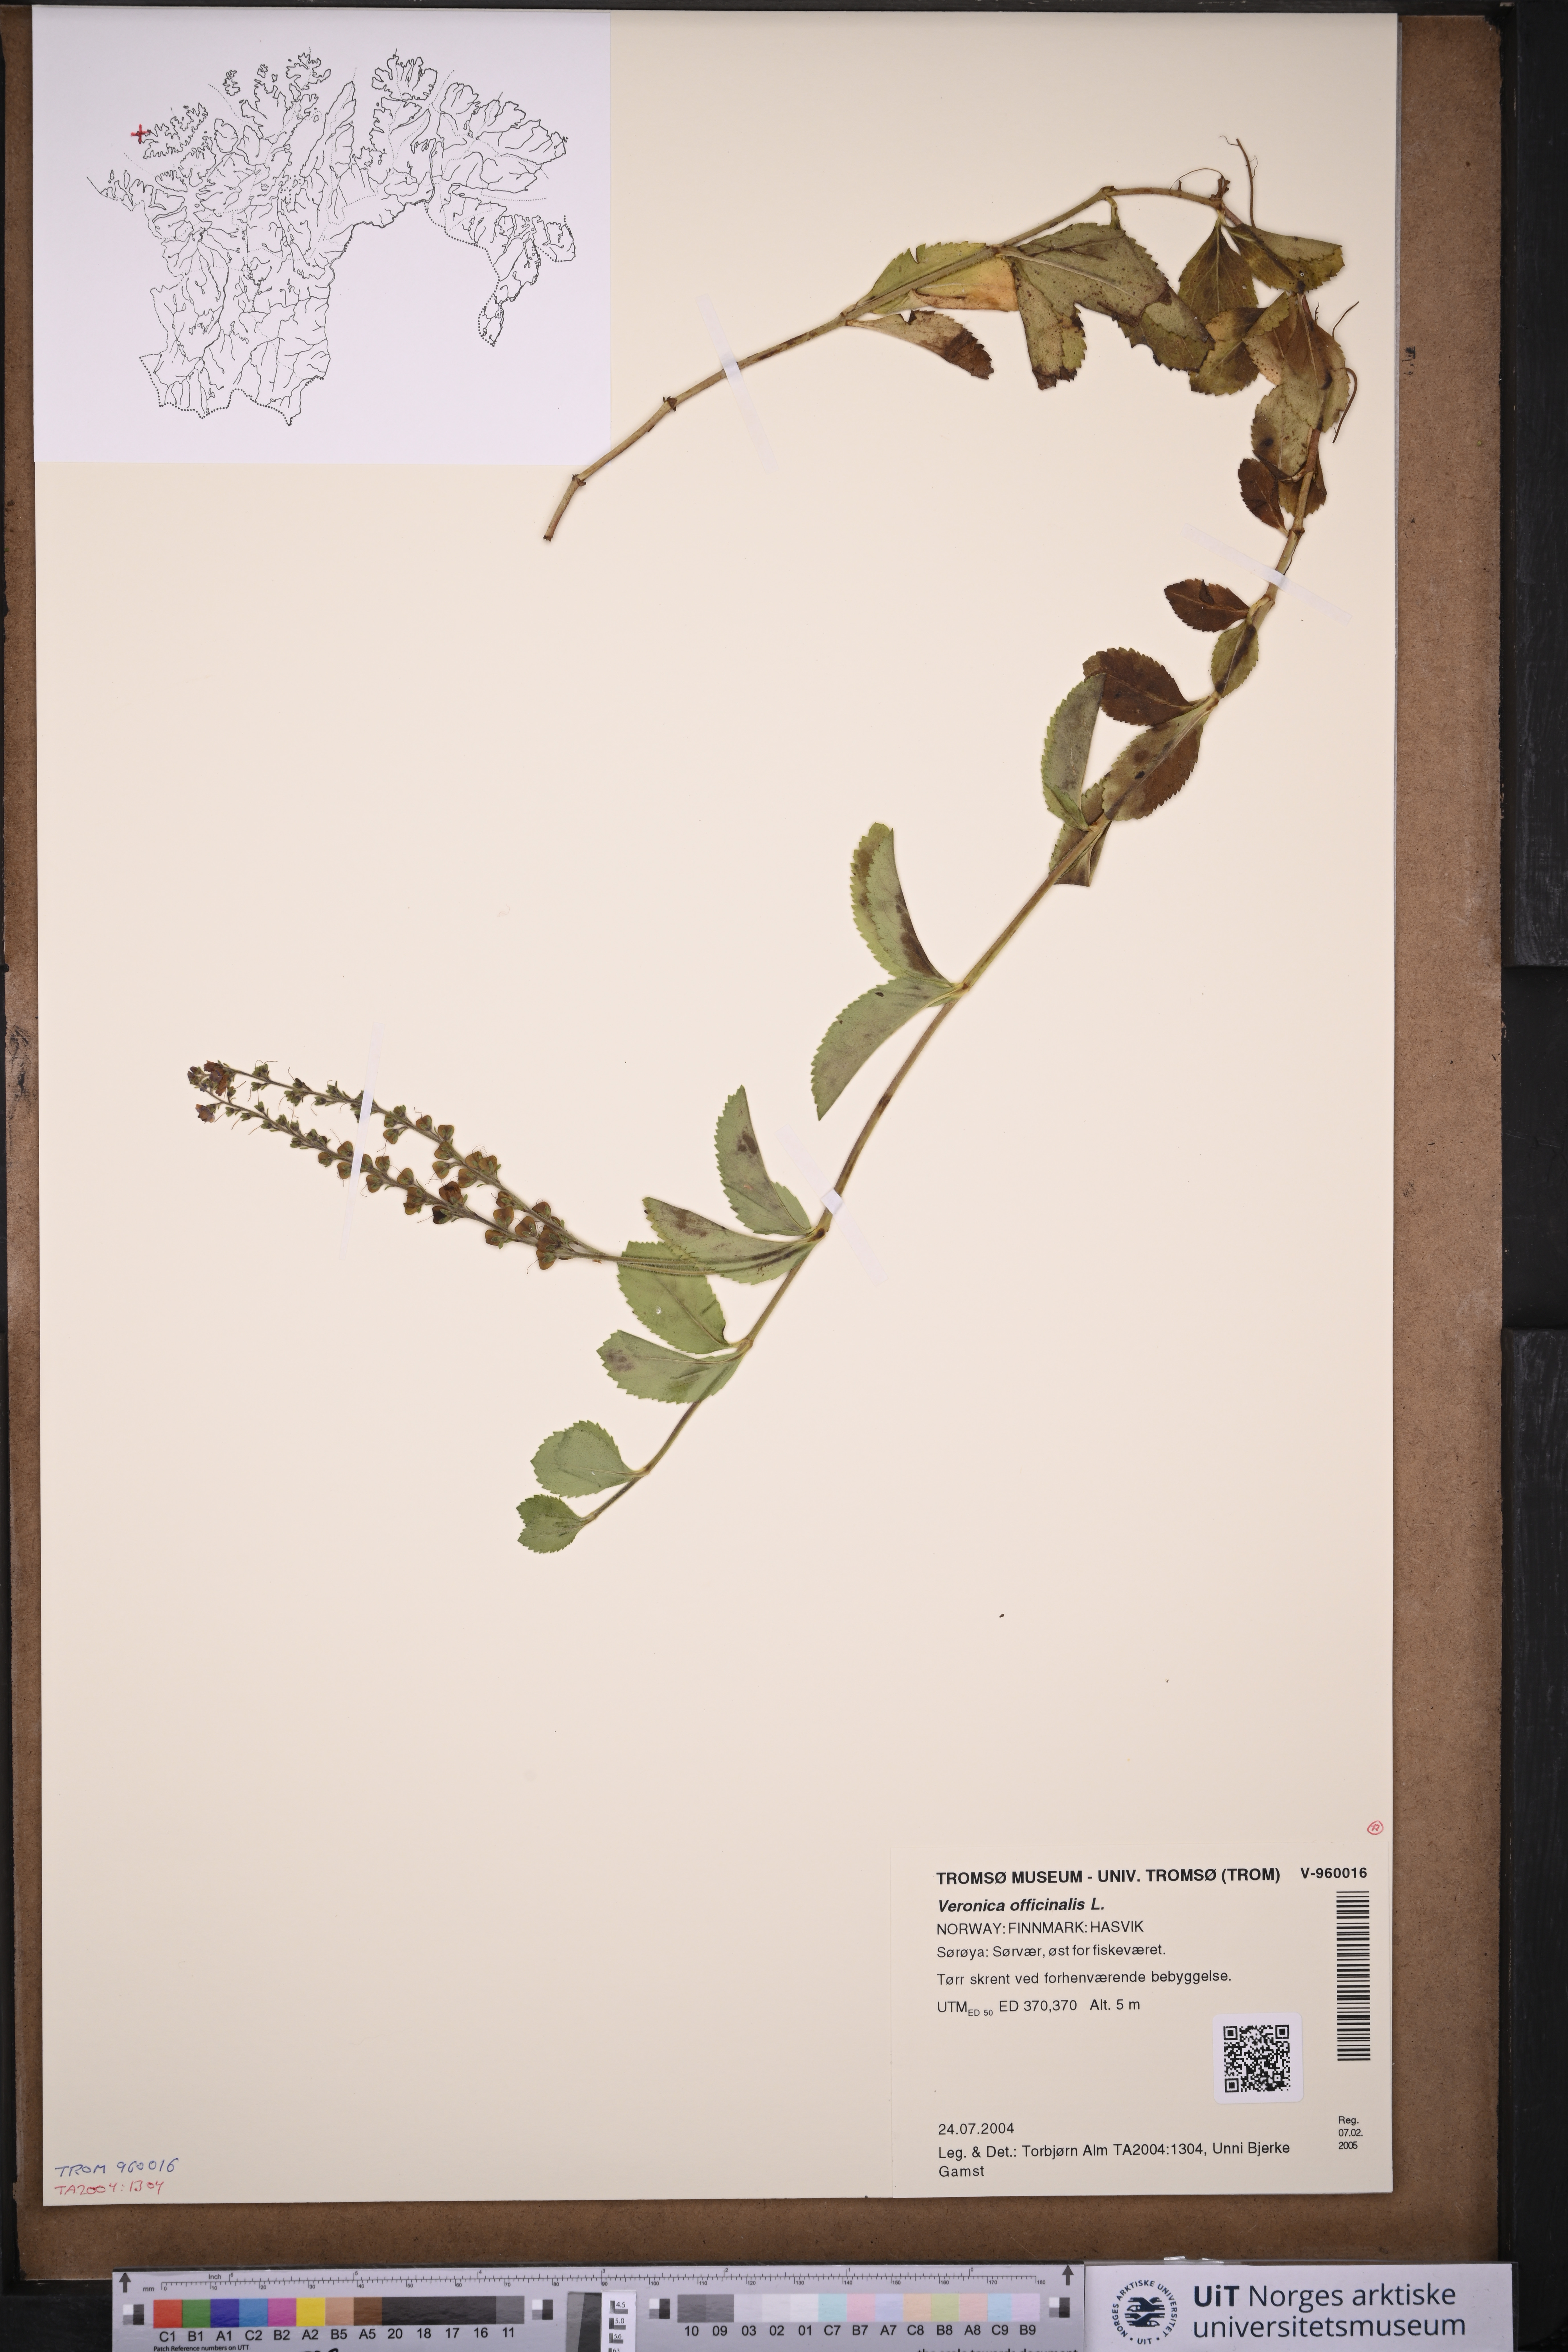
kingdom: Plantae
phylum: Tracheophyta
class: Magnoliopsida
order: Lamiales
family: Plantaginaceae
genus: Veronica
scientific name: Veronica officinalis
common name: Common speedwell
